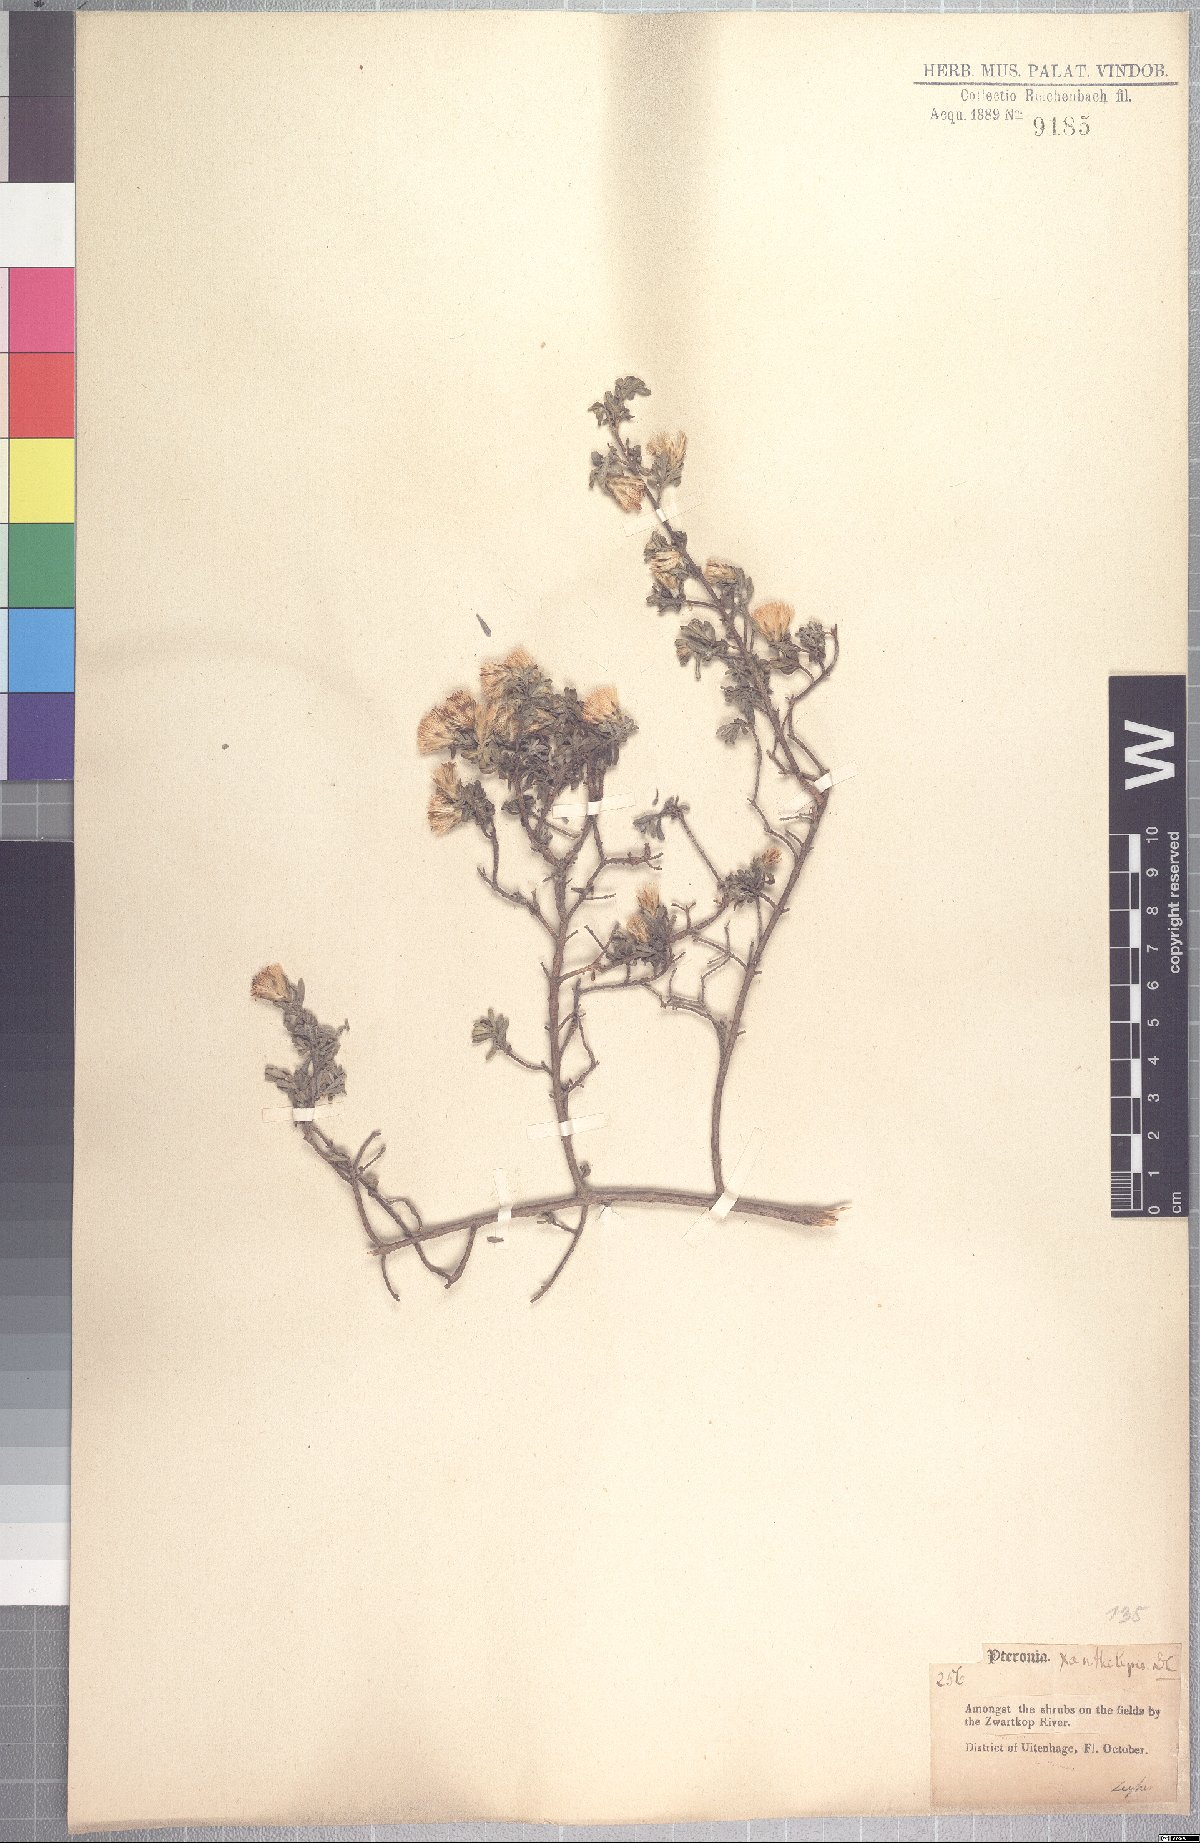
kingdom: Plantae
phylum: Tracheophyta
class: Magnoliopsida
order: Asterales
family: Asteraceae
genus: Pteronia
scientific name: Pteronia incana
